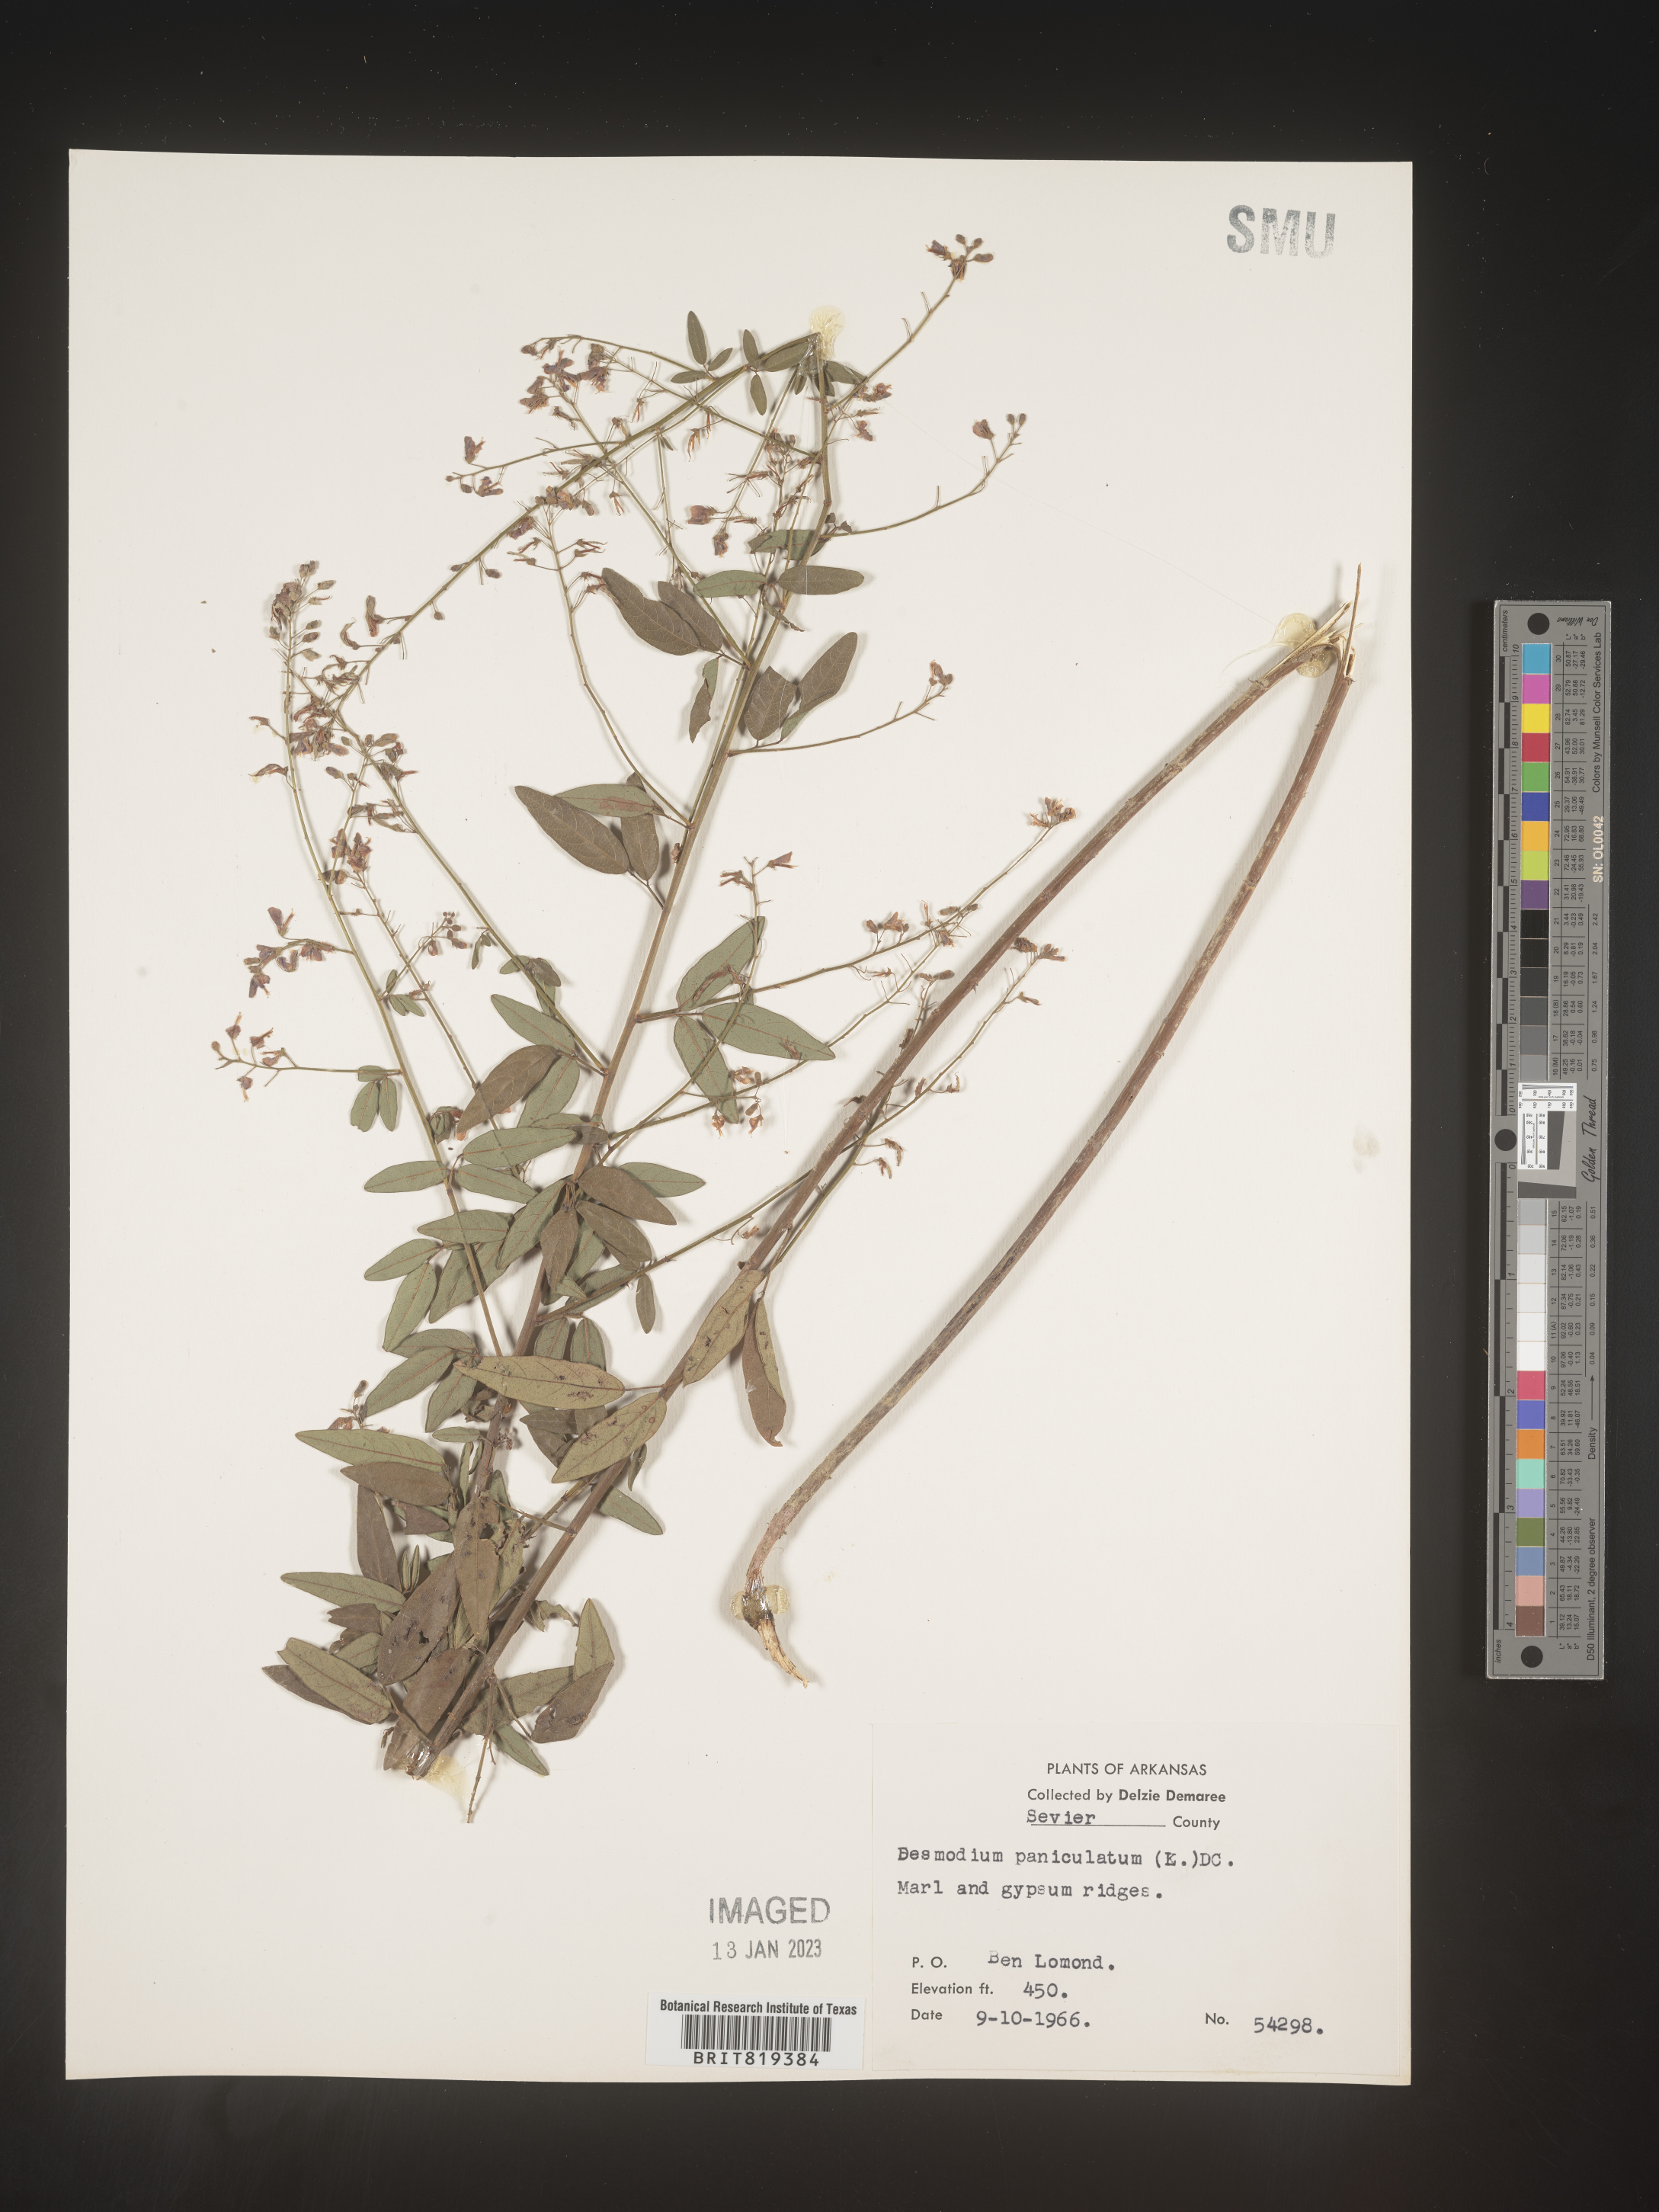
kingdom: Plantae
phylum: Tracheophyta
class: Magnoliopsida
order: Fabales
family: Fabaceae
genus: Desmodium
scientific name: Desmodium paniculatum
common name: Panicled tick-clover
